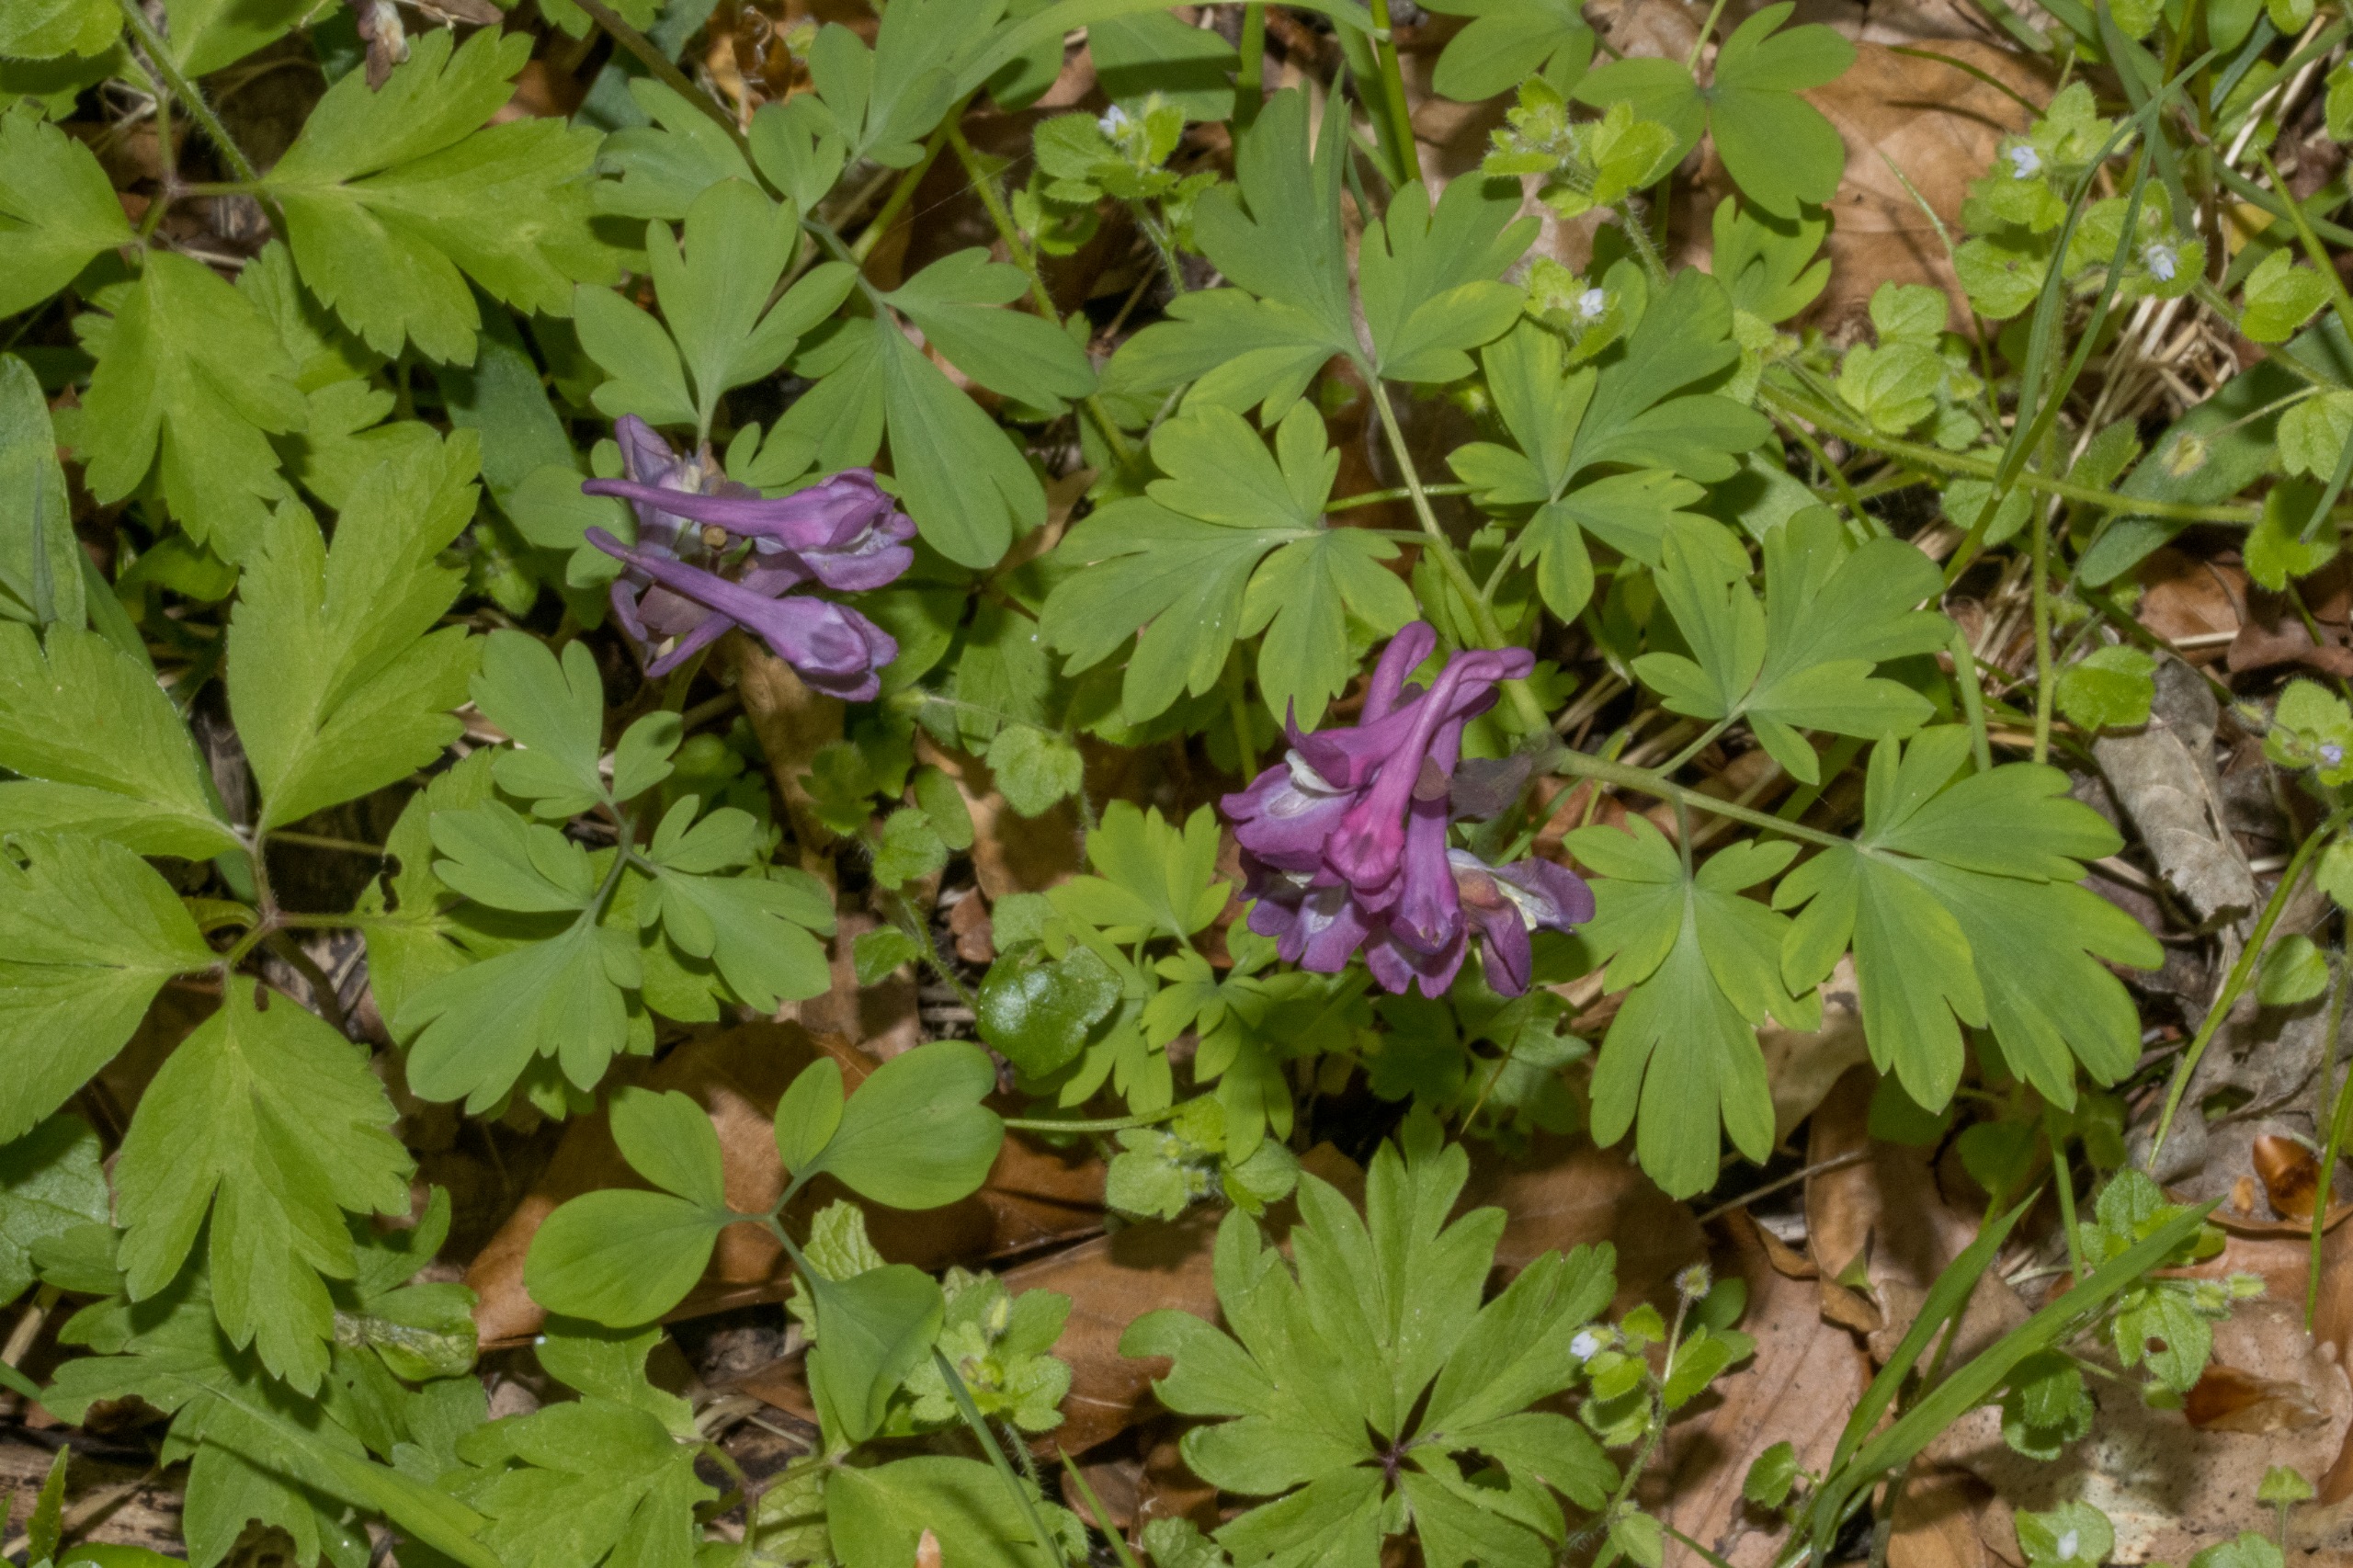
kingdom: Plantae
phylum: Tracheophyta
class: Magnoliopsida
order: Ranunculales
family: Papaveraceae
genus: Corydalis
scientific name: Corydalis cava
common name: Hulrodet lærkespore
